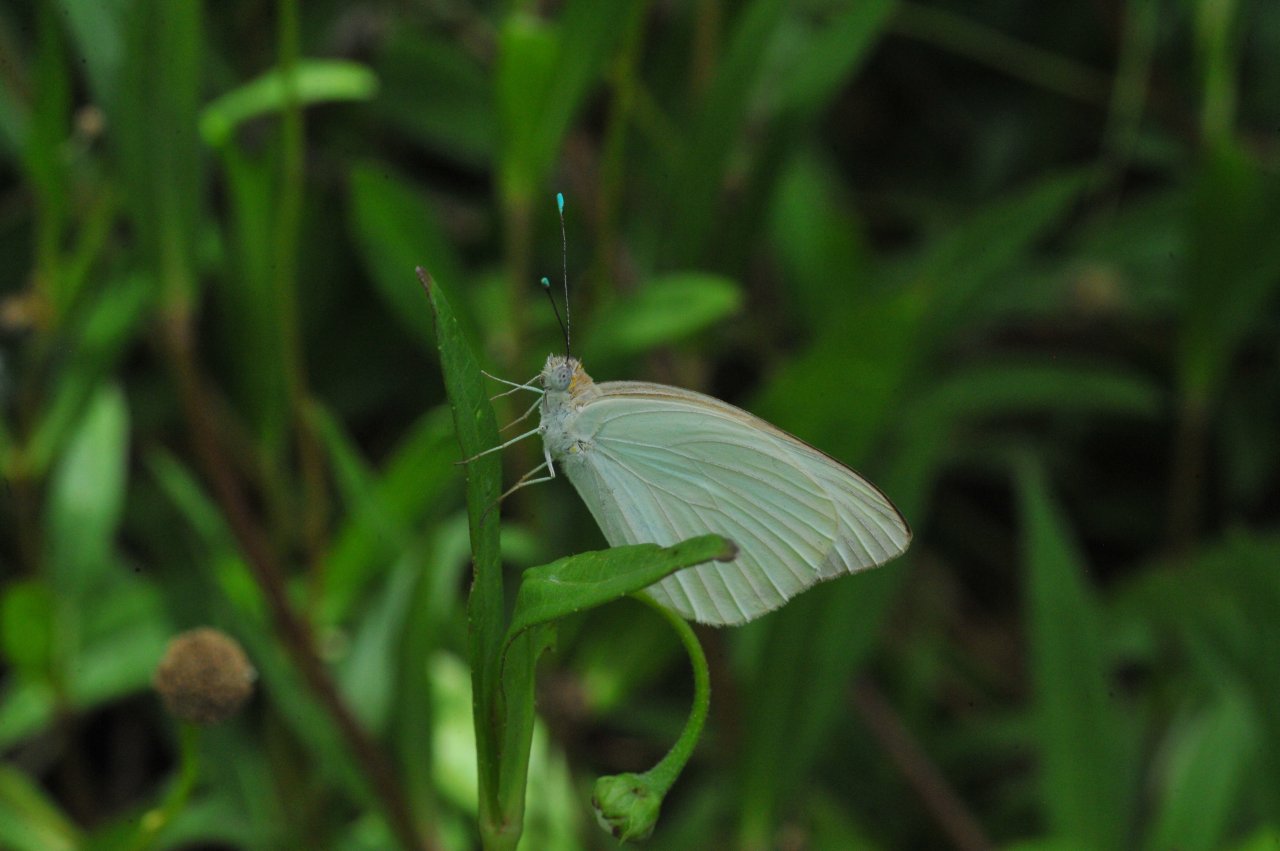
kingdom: Animalia
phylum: Arthropoda
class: Insecta
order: Lepidoptera
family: Pieridae
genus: Ascia
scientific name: Ascia monuste
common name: Great Southern White
